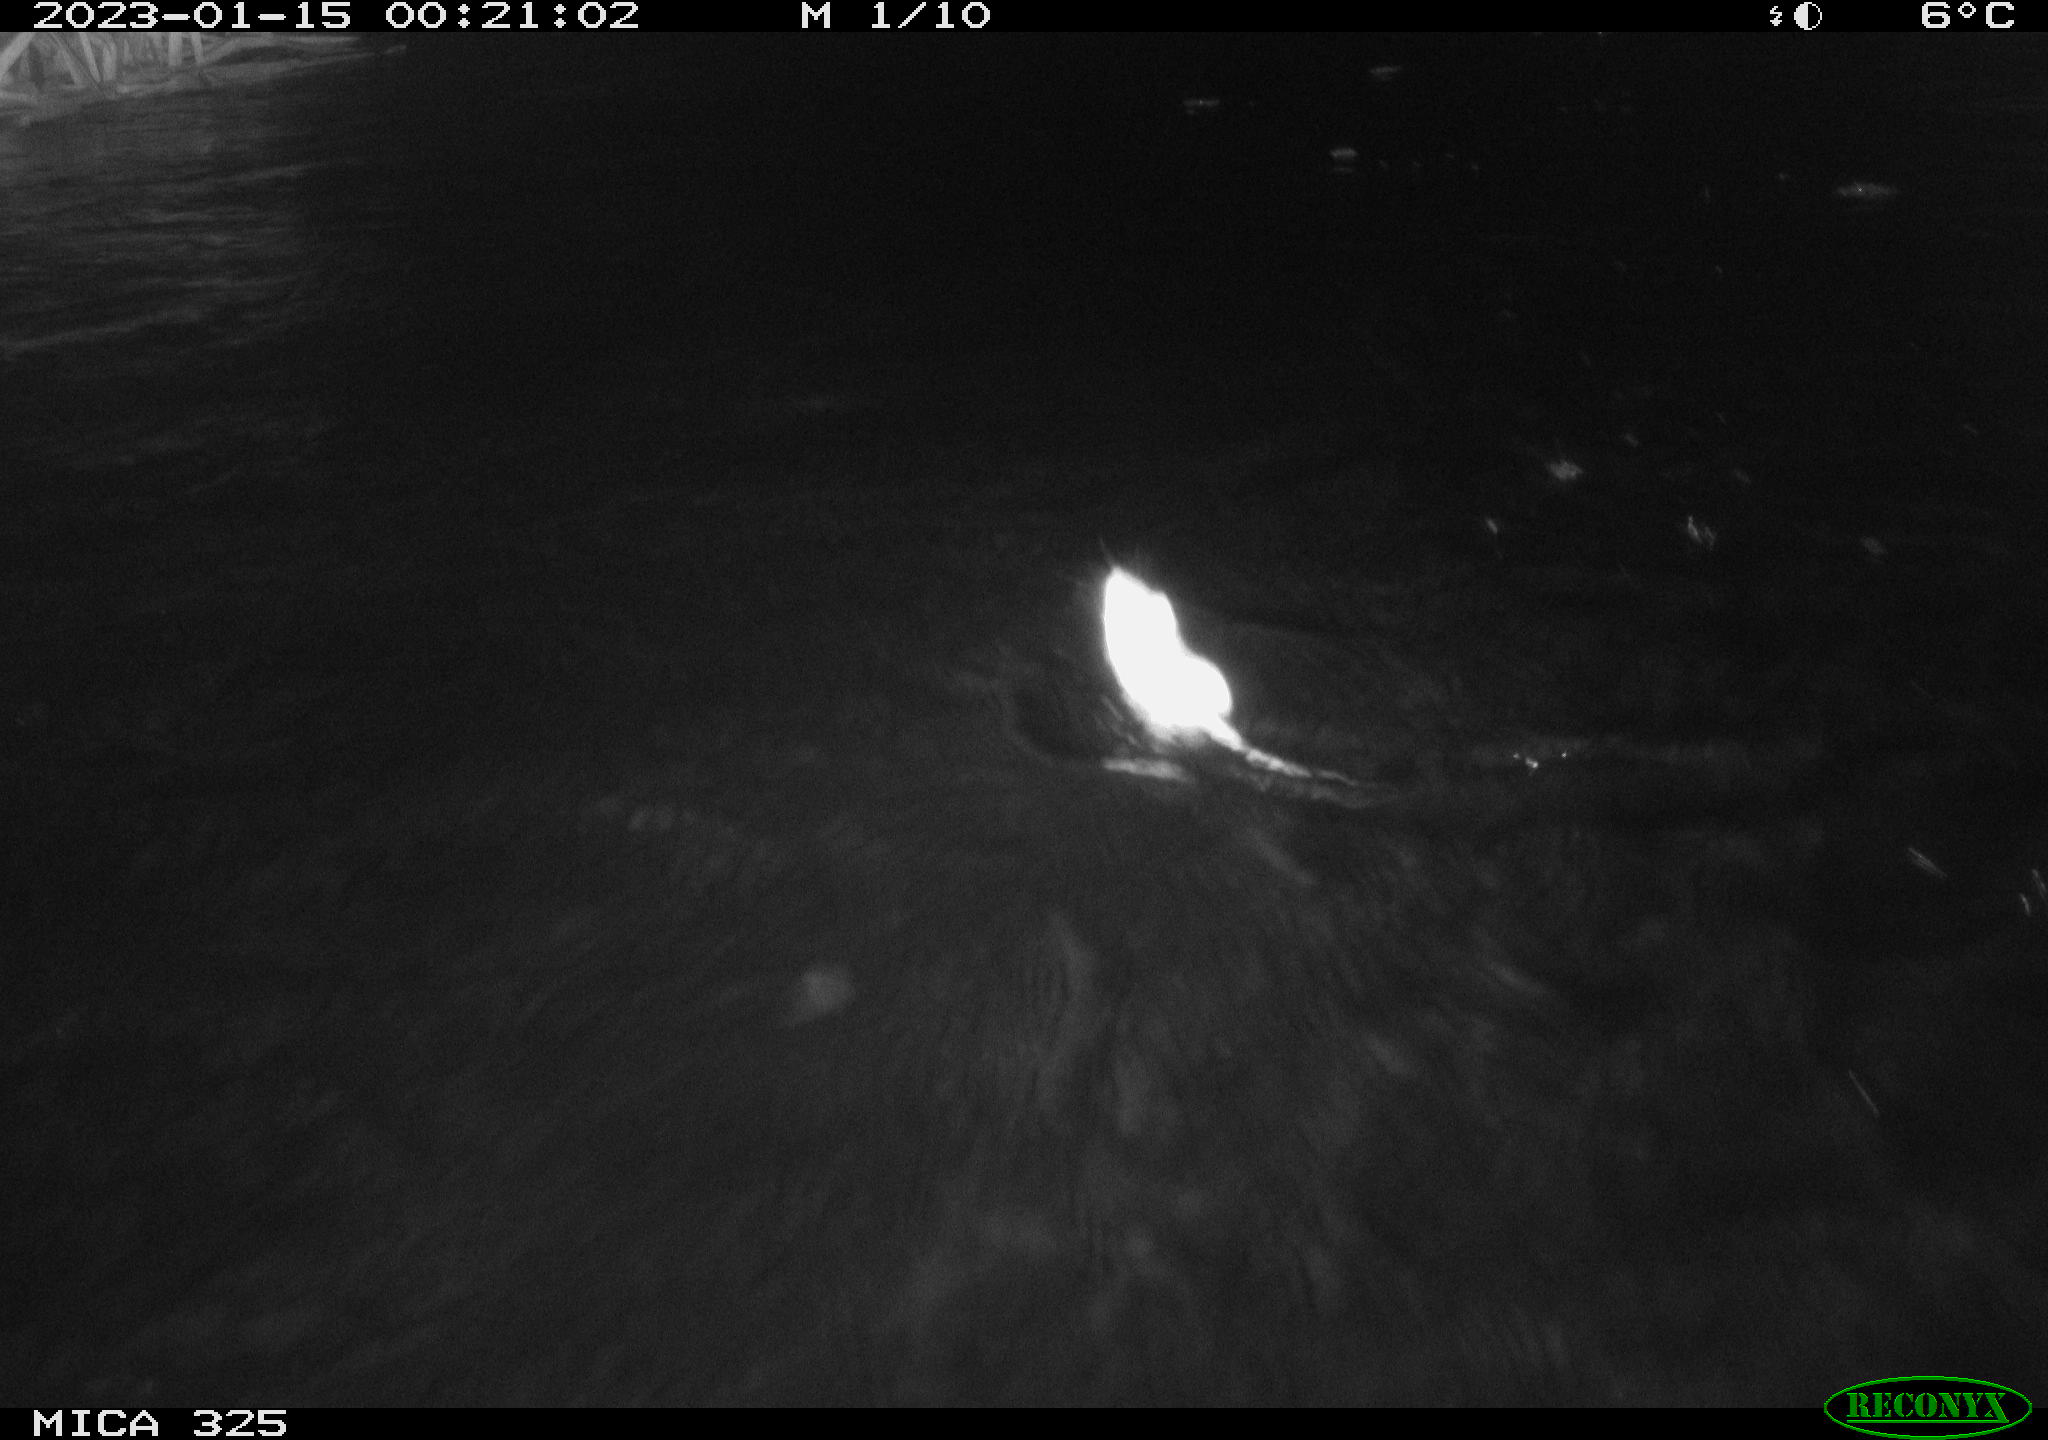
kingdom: Animalia
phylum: Chordata
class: Mammalia
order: Rodentia
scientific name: Rodentia
